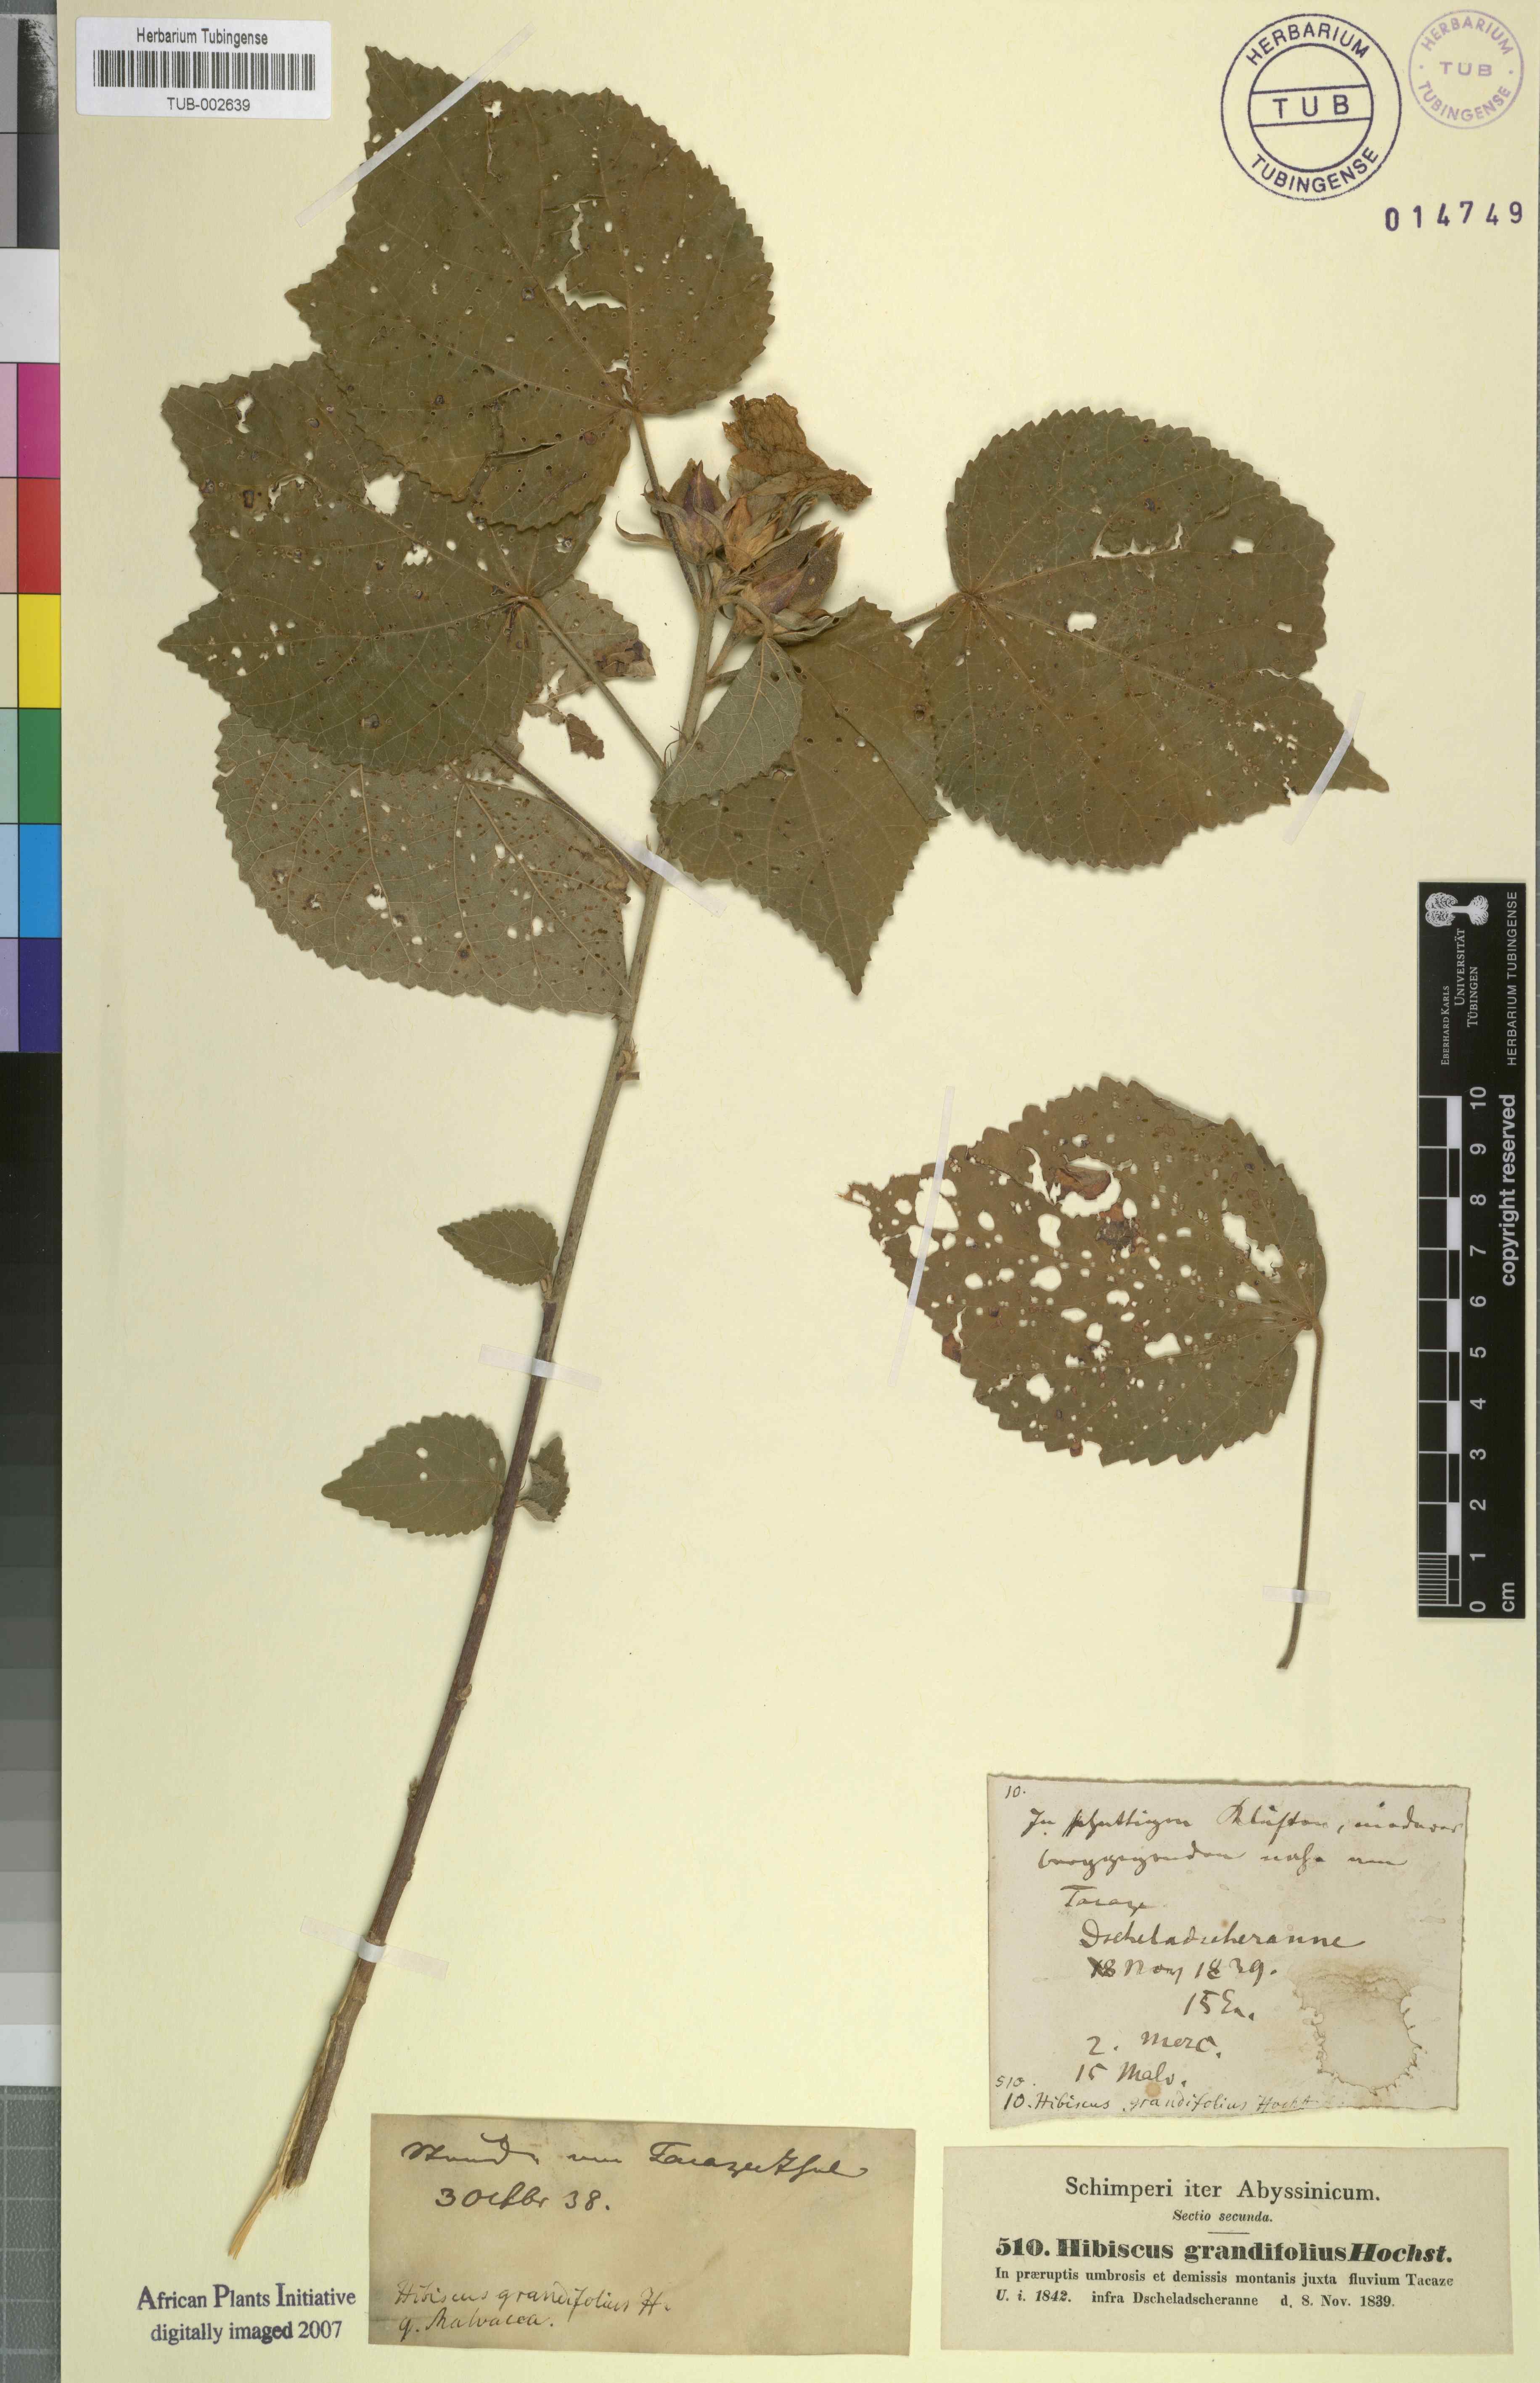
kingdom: Plantae
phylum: Tracheophyta
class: Magnoliopsida
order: Malvales
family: Malvaceae
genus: Hibiscus
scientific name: Hibiscus calyphyllus
